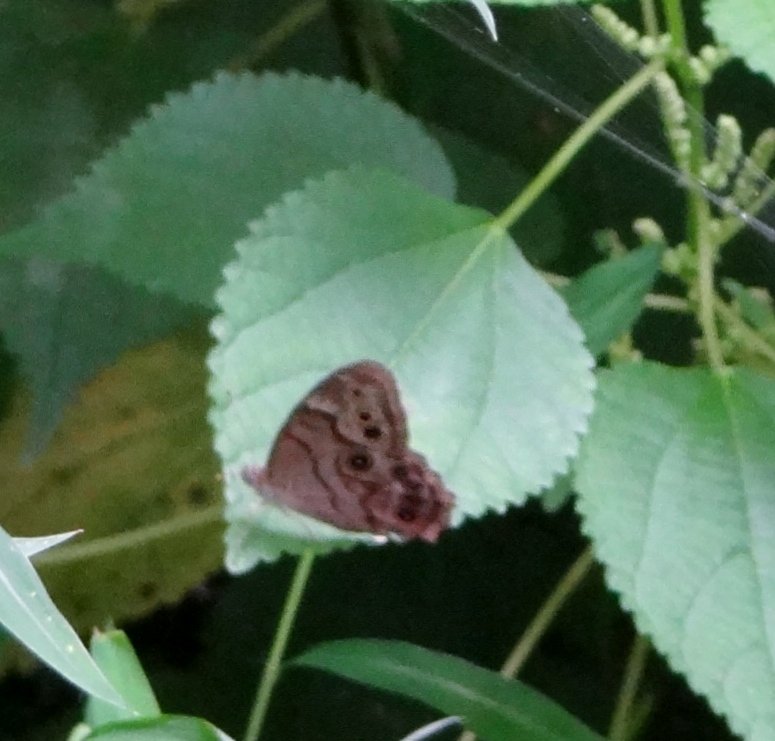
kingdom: Animalia
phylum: Arthropoda
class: Insecta
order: Lepidoptera
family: Nymphalidae
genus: Lethe
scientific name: Lethe anthedon
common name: Northern Pearly-Eye
